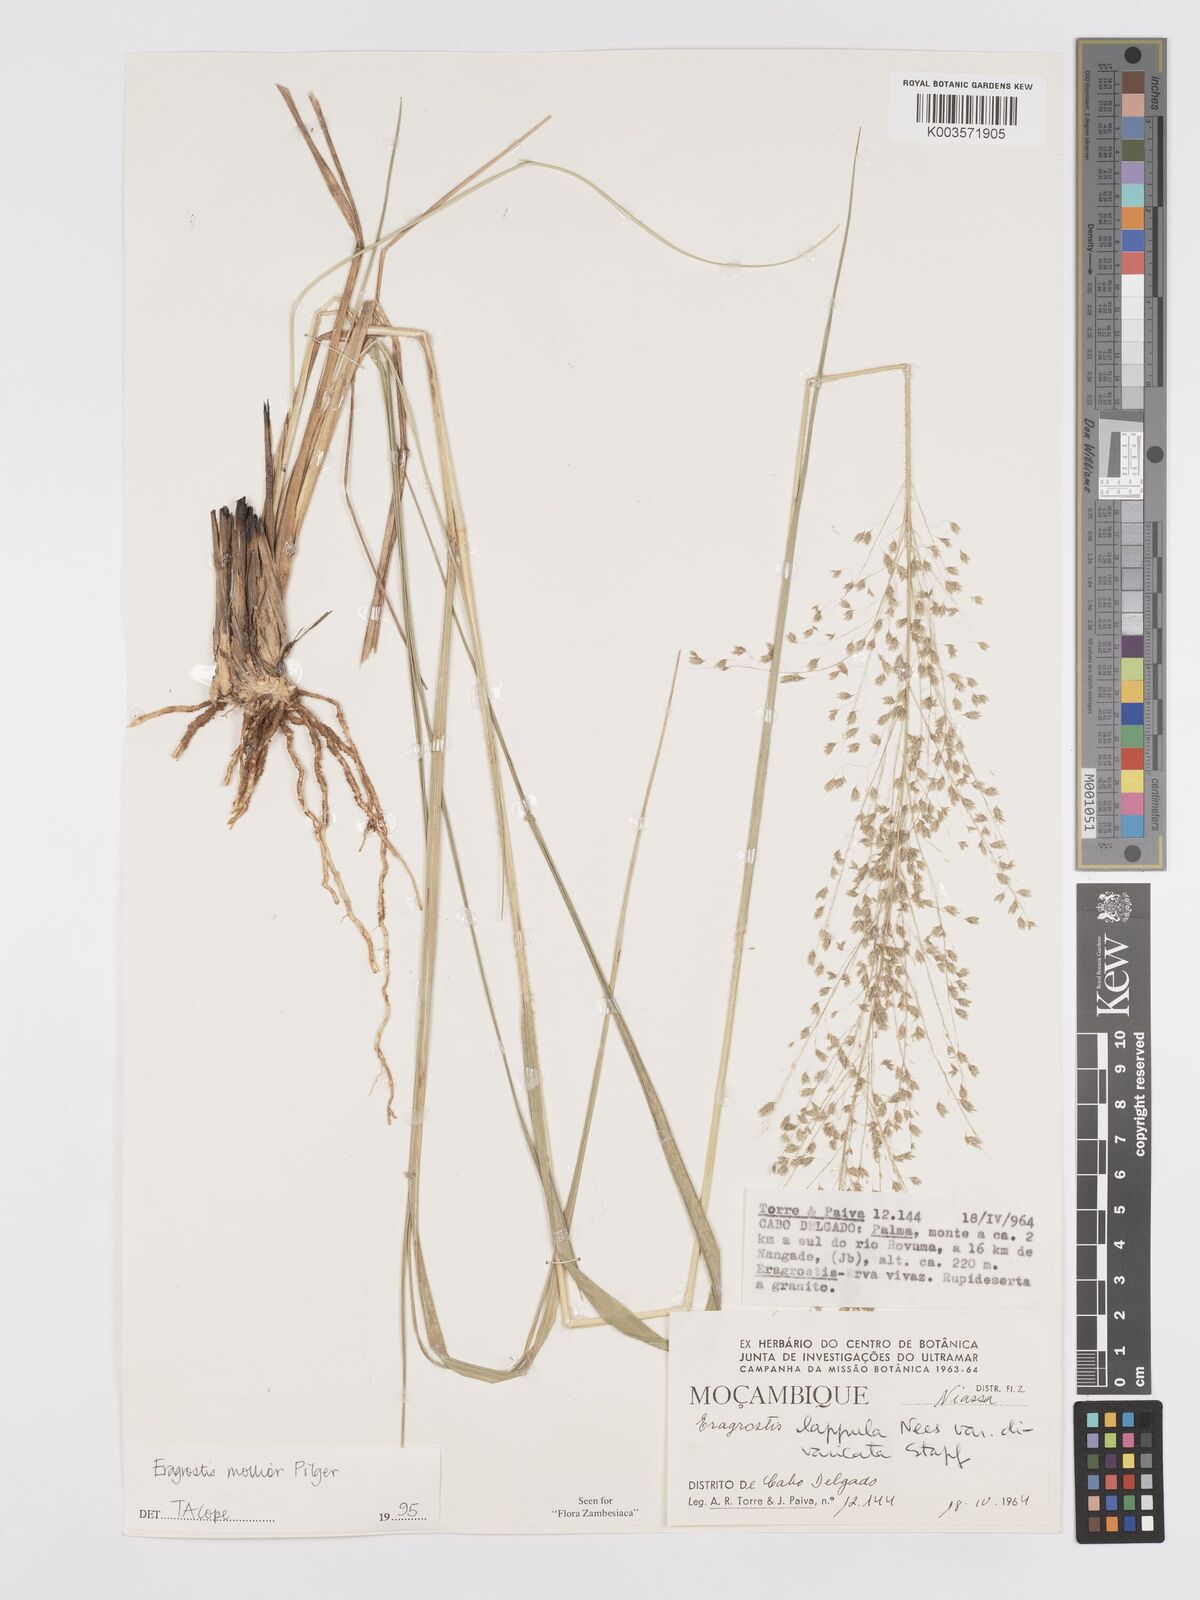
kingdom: Plantae
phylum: Tracheophyta
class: Liliopsida
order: Poales
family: Poaceae
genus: Eragrostis
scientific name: Eragrostis mollior
